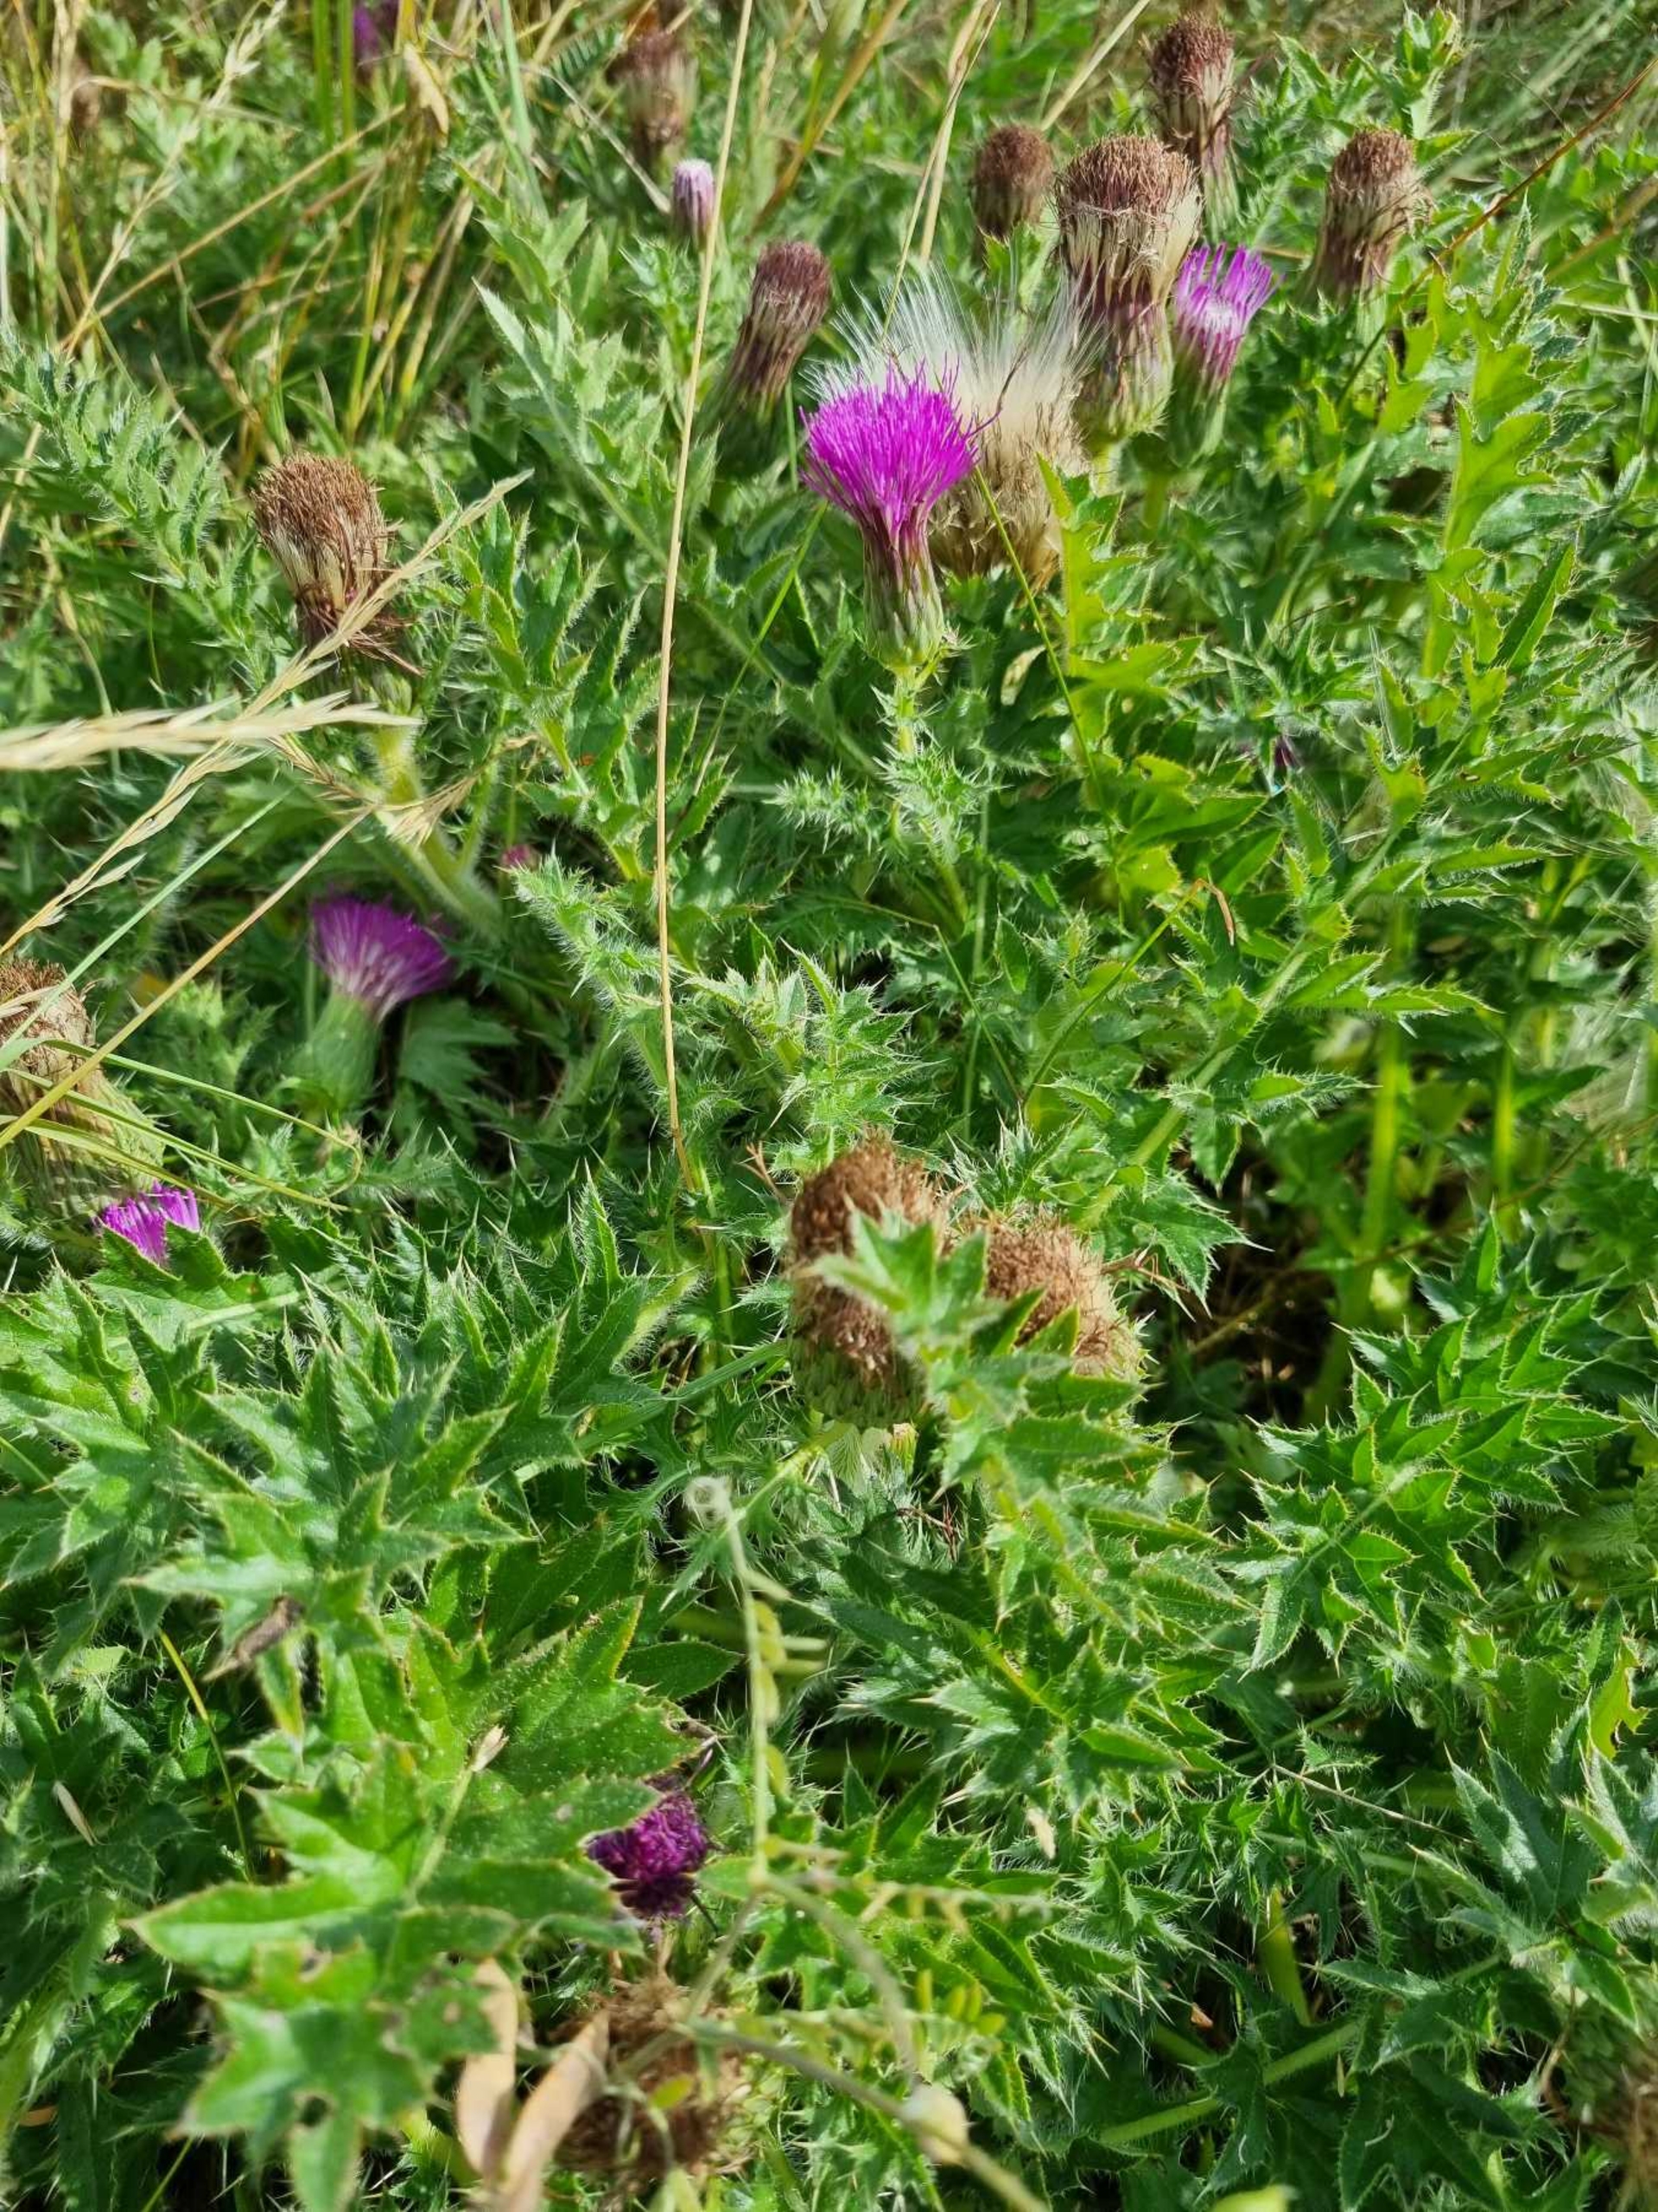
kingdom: Plantae
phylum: Tracheophyta
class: Magnoliopsida
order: Asterales
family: Asteraceae
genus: Cirsium
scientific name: Cirsium acaule
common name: Lav tidsel
